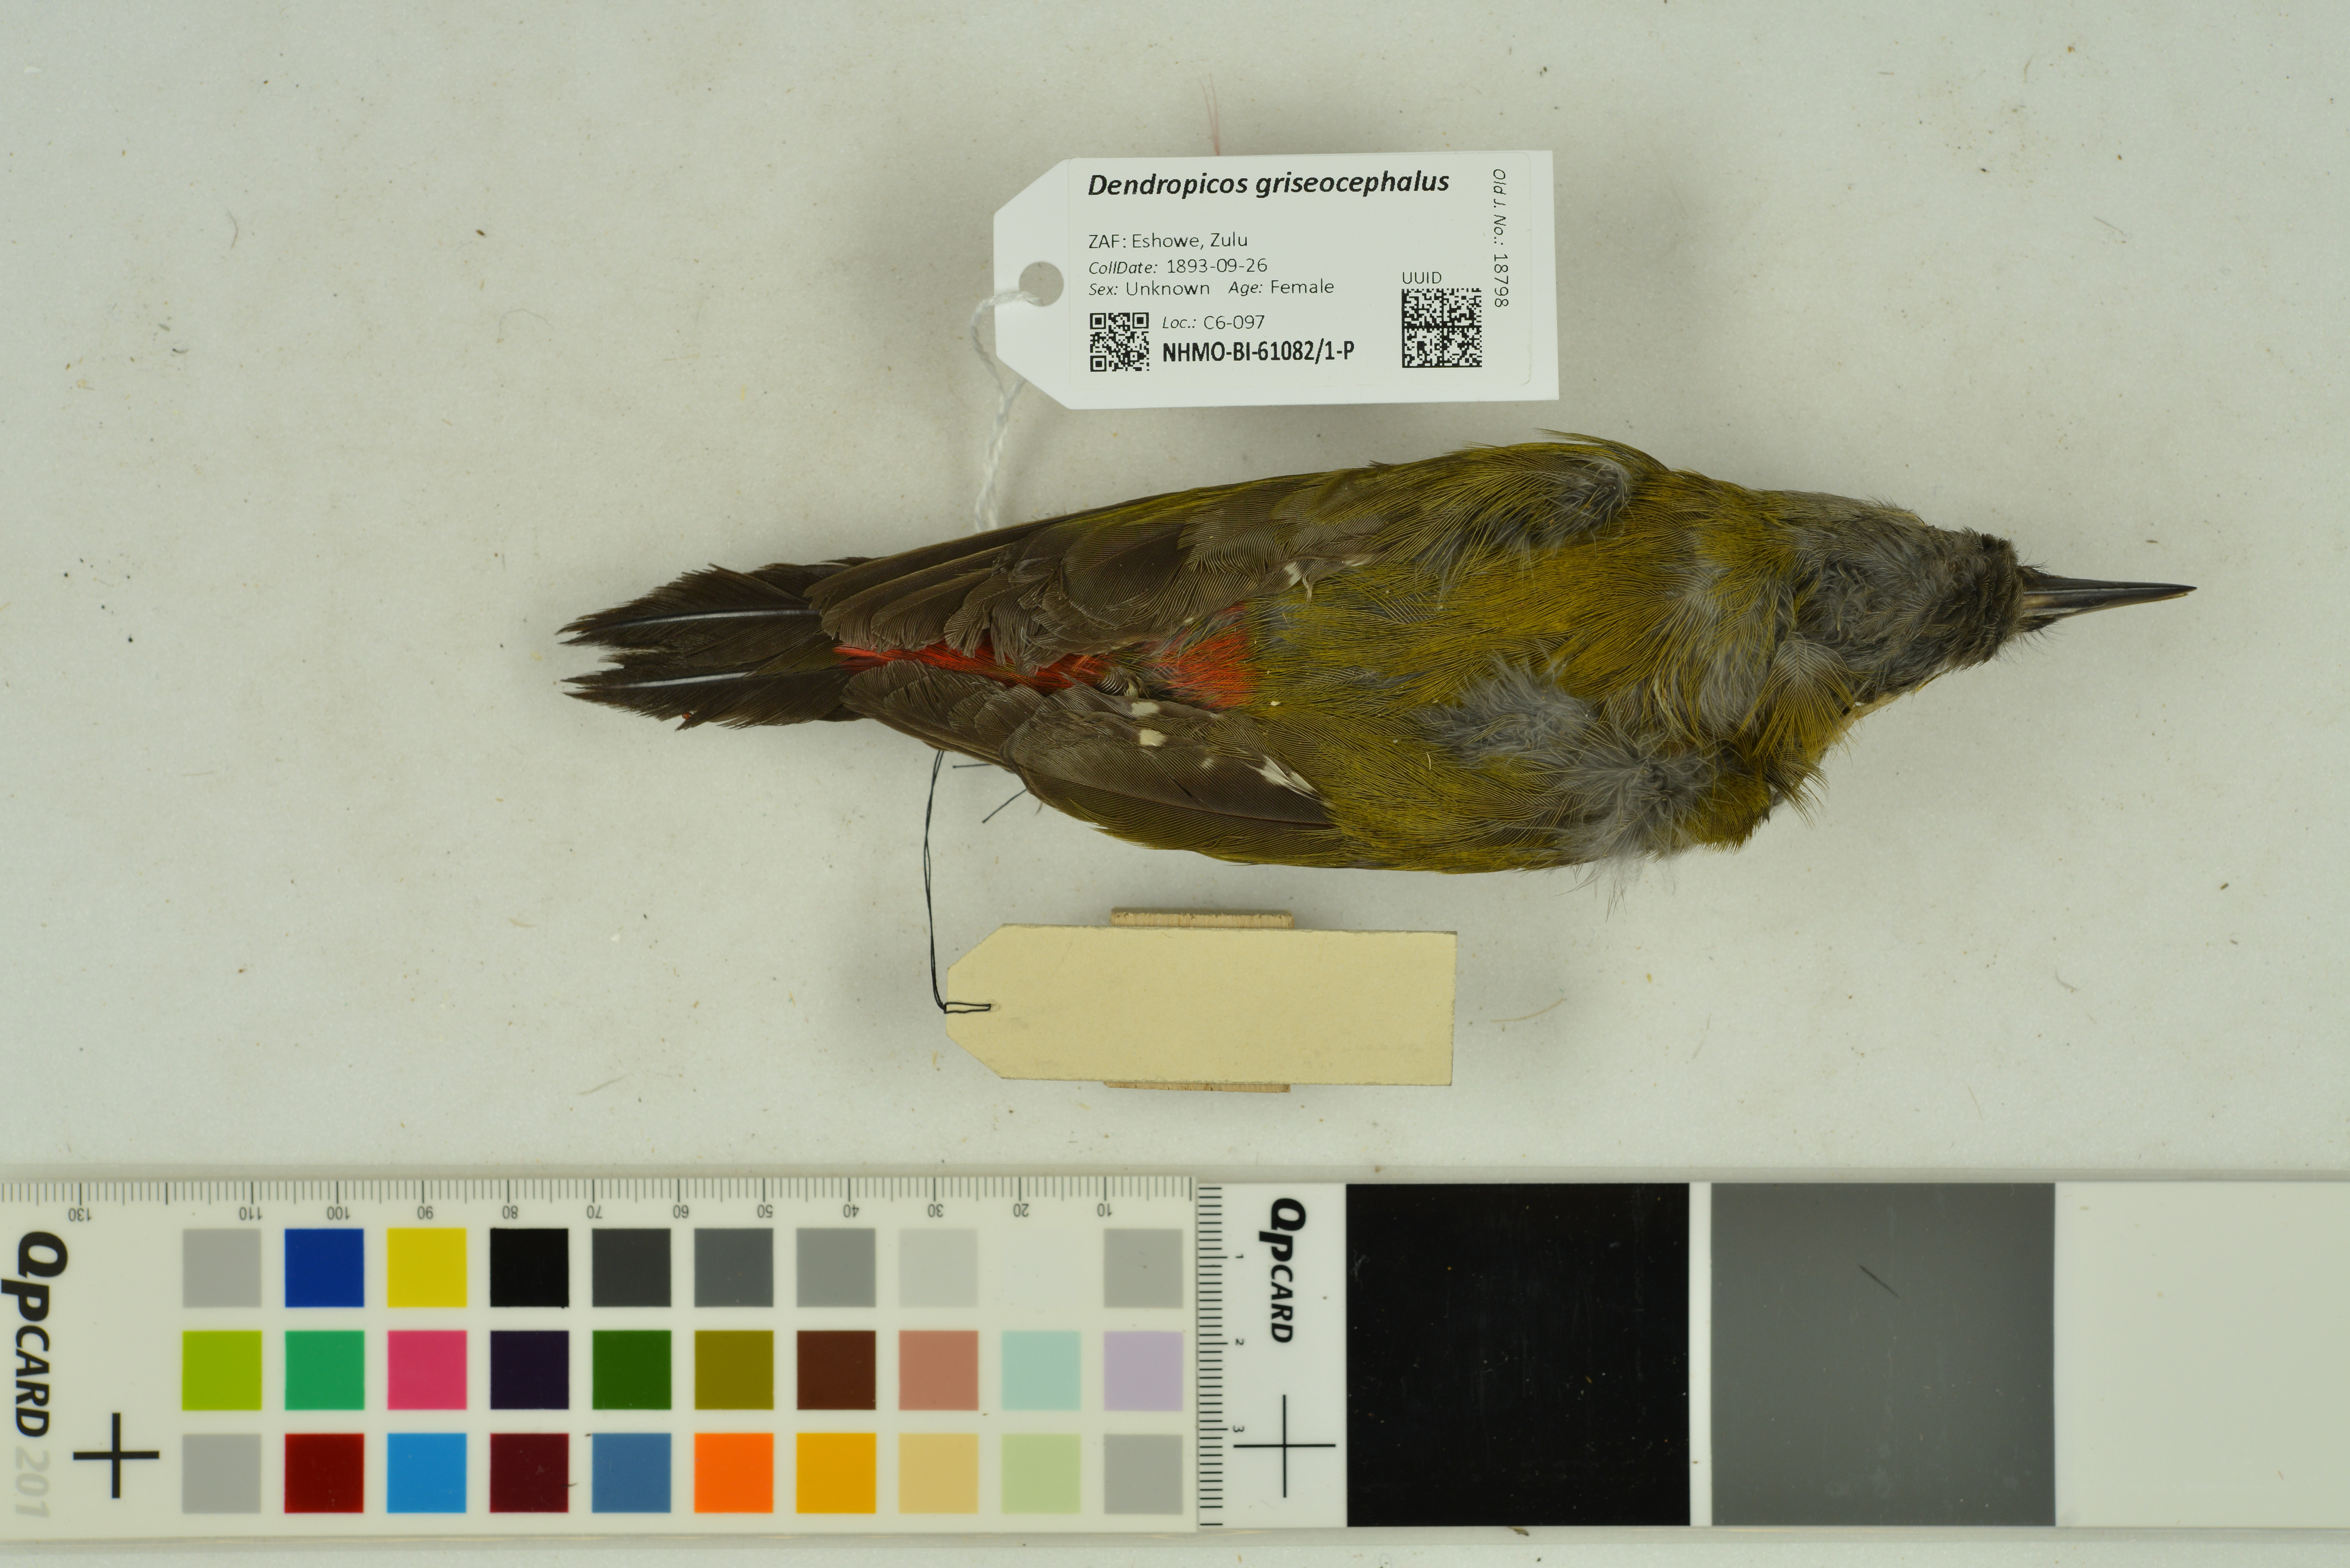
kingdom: Animalia
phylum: Chordata
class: Aves
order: Piciformes
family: Picidae
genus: Dendropicos
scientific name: Dendropicos griseocephalus
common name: Olive woodpecker
